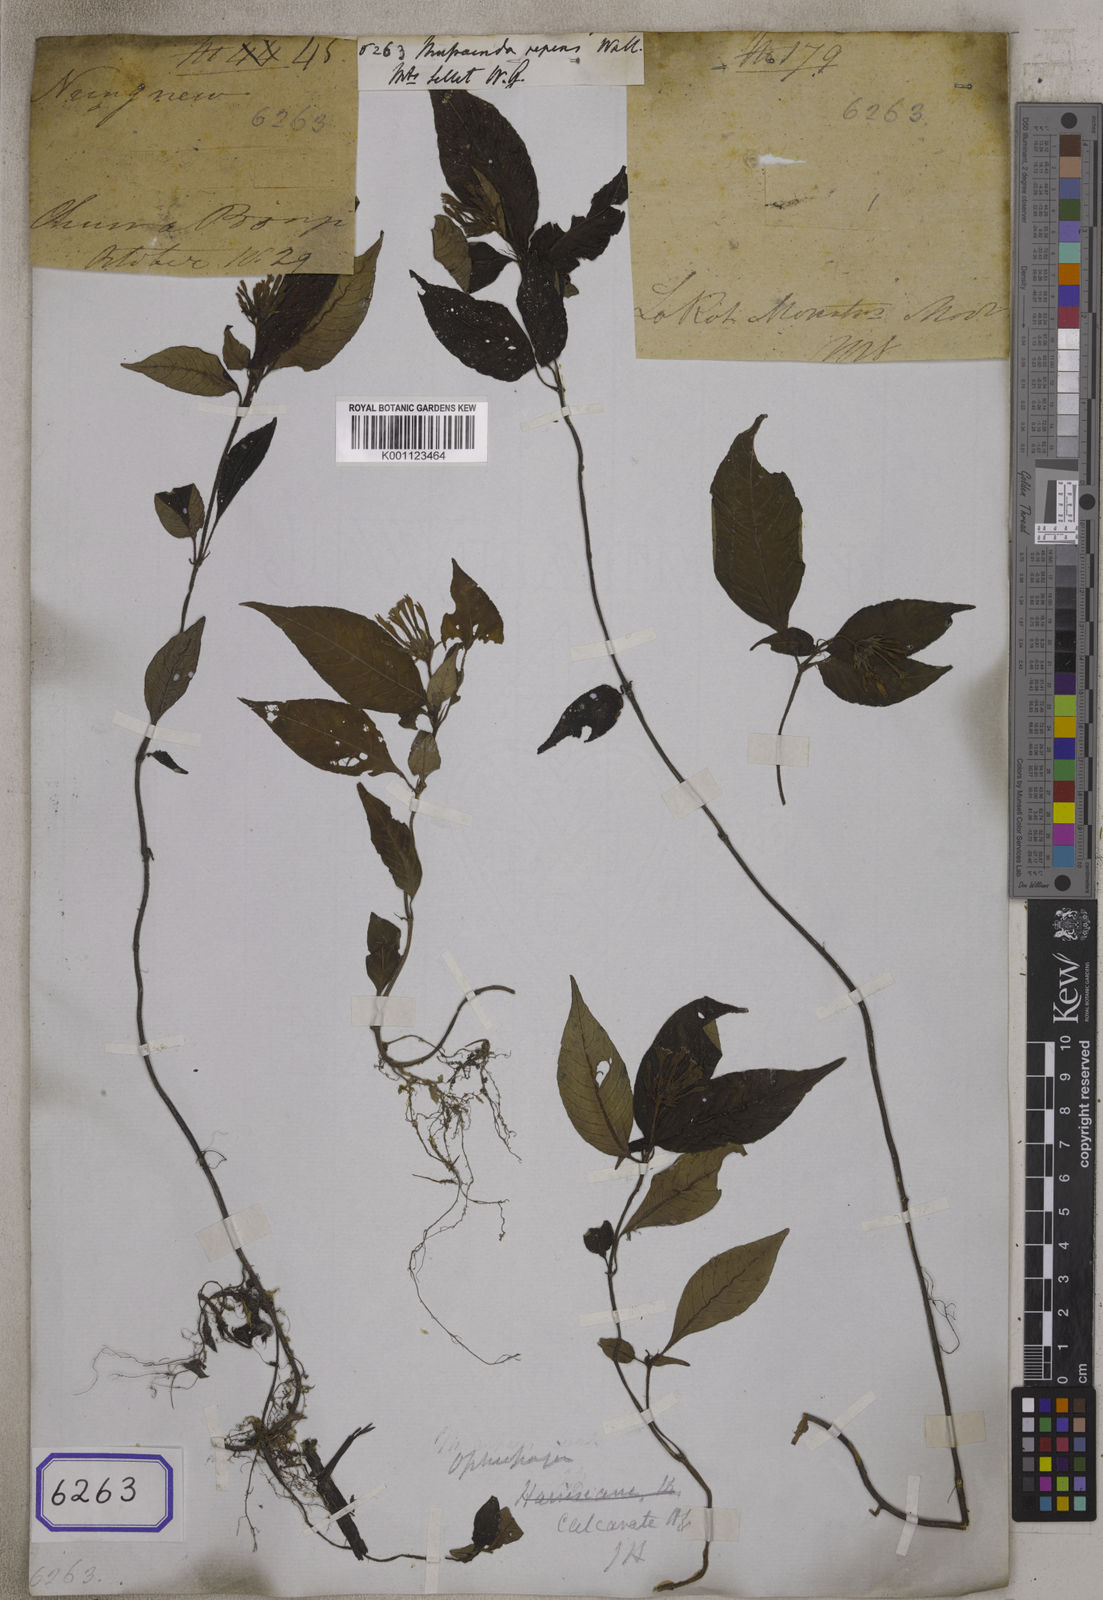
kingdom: Plantae
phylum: Tracheophyta
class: Magnoliopsida
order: Gentianales
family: Rubiaceae
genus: Mussaenda
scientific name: Mussaenda
